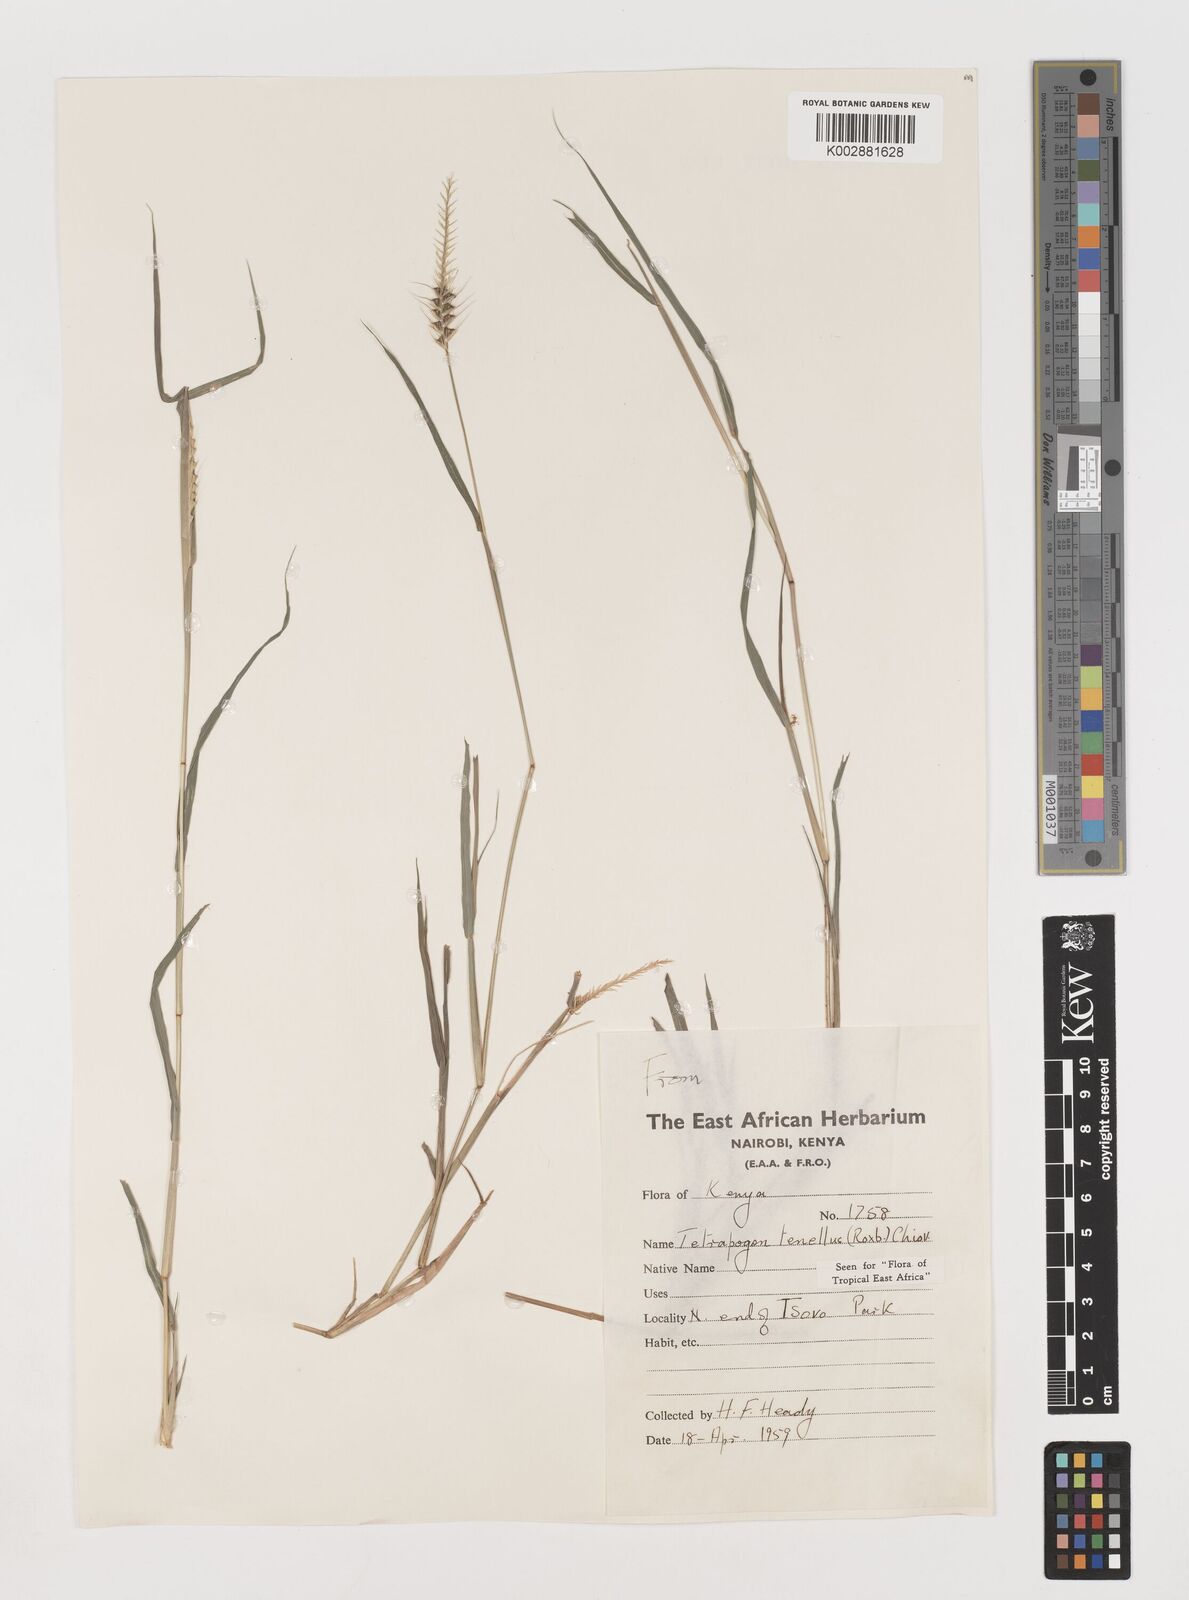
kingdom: Plantae
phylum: Tracheophyta
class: Liliopsida
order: Poales
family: Poaceae
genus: Tetrapogon
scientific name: Tetrapogon tenellus
